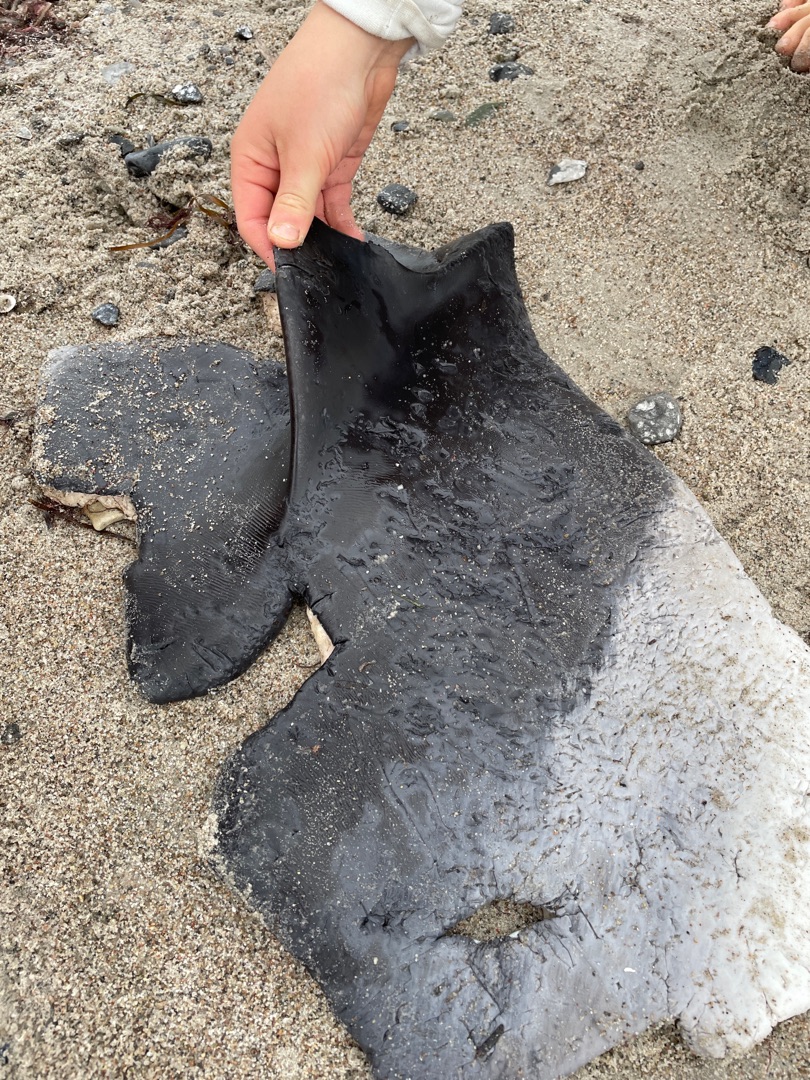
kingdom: Animalia
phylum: Chordata
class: Mammalia
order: Cetacea
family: Phocoenidae
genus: Phocoena
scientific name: Phocoena phocoena
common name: Marsvin
